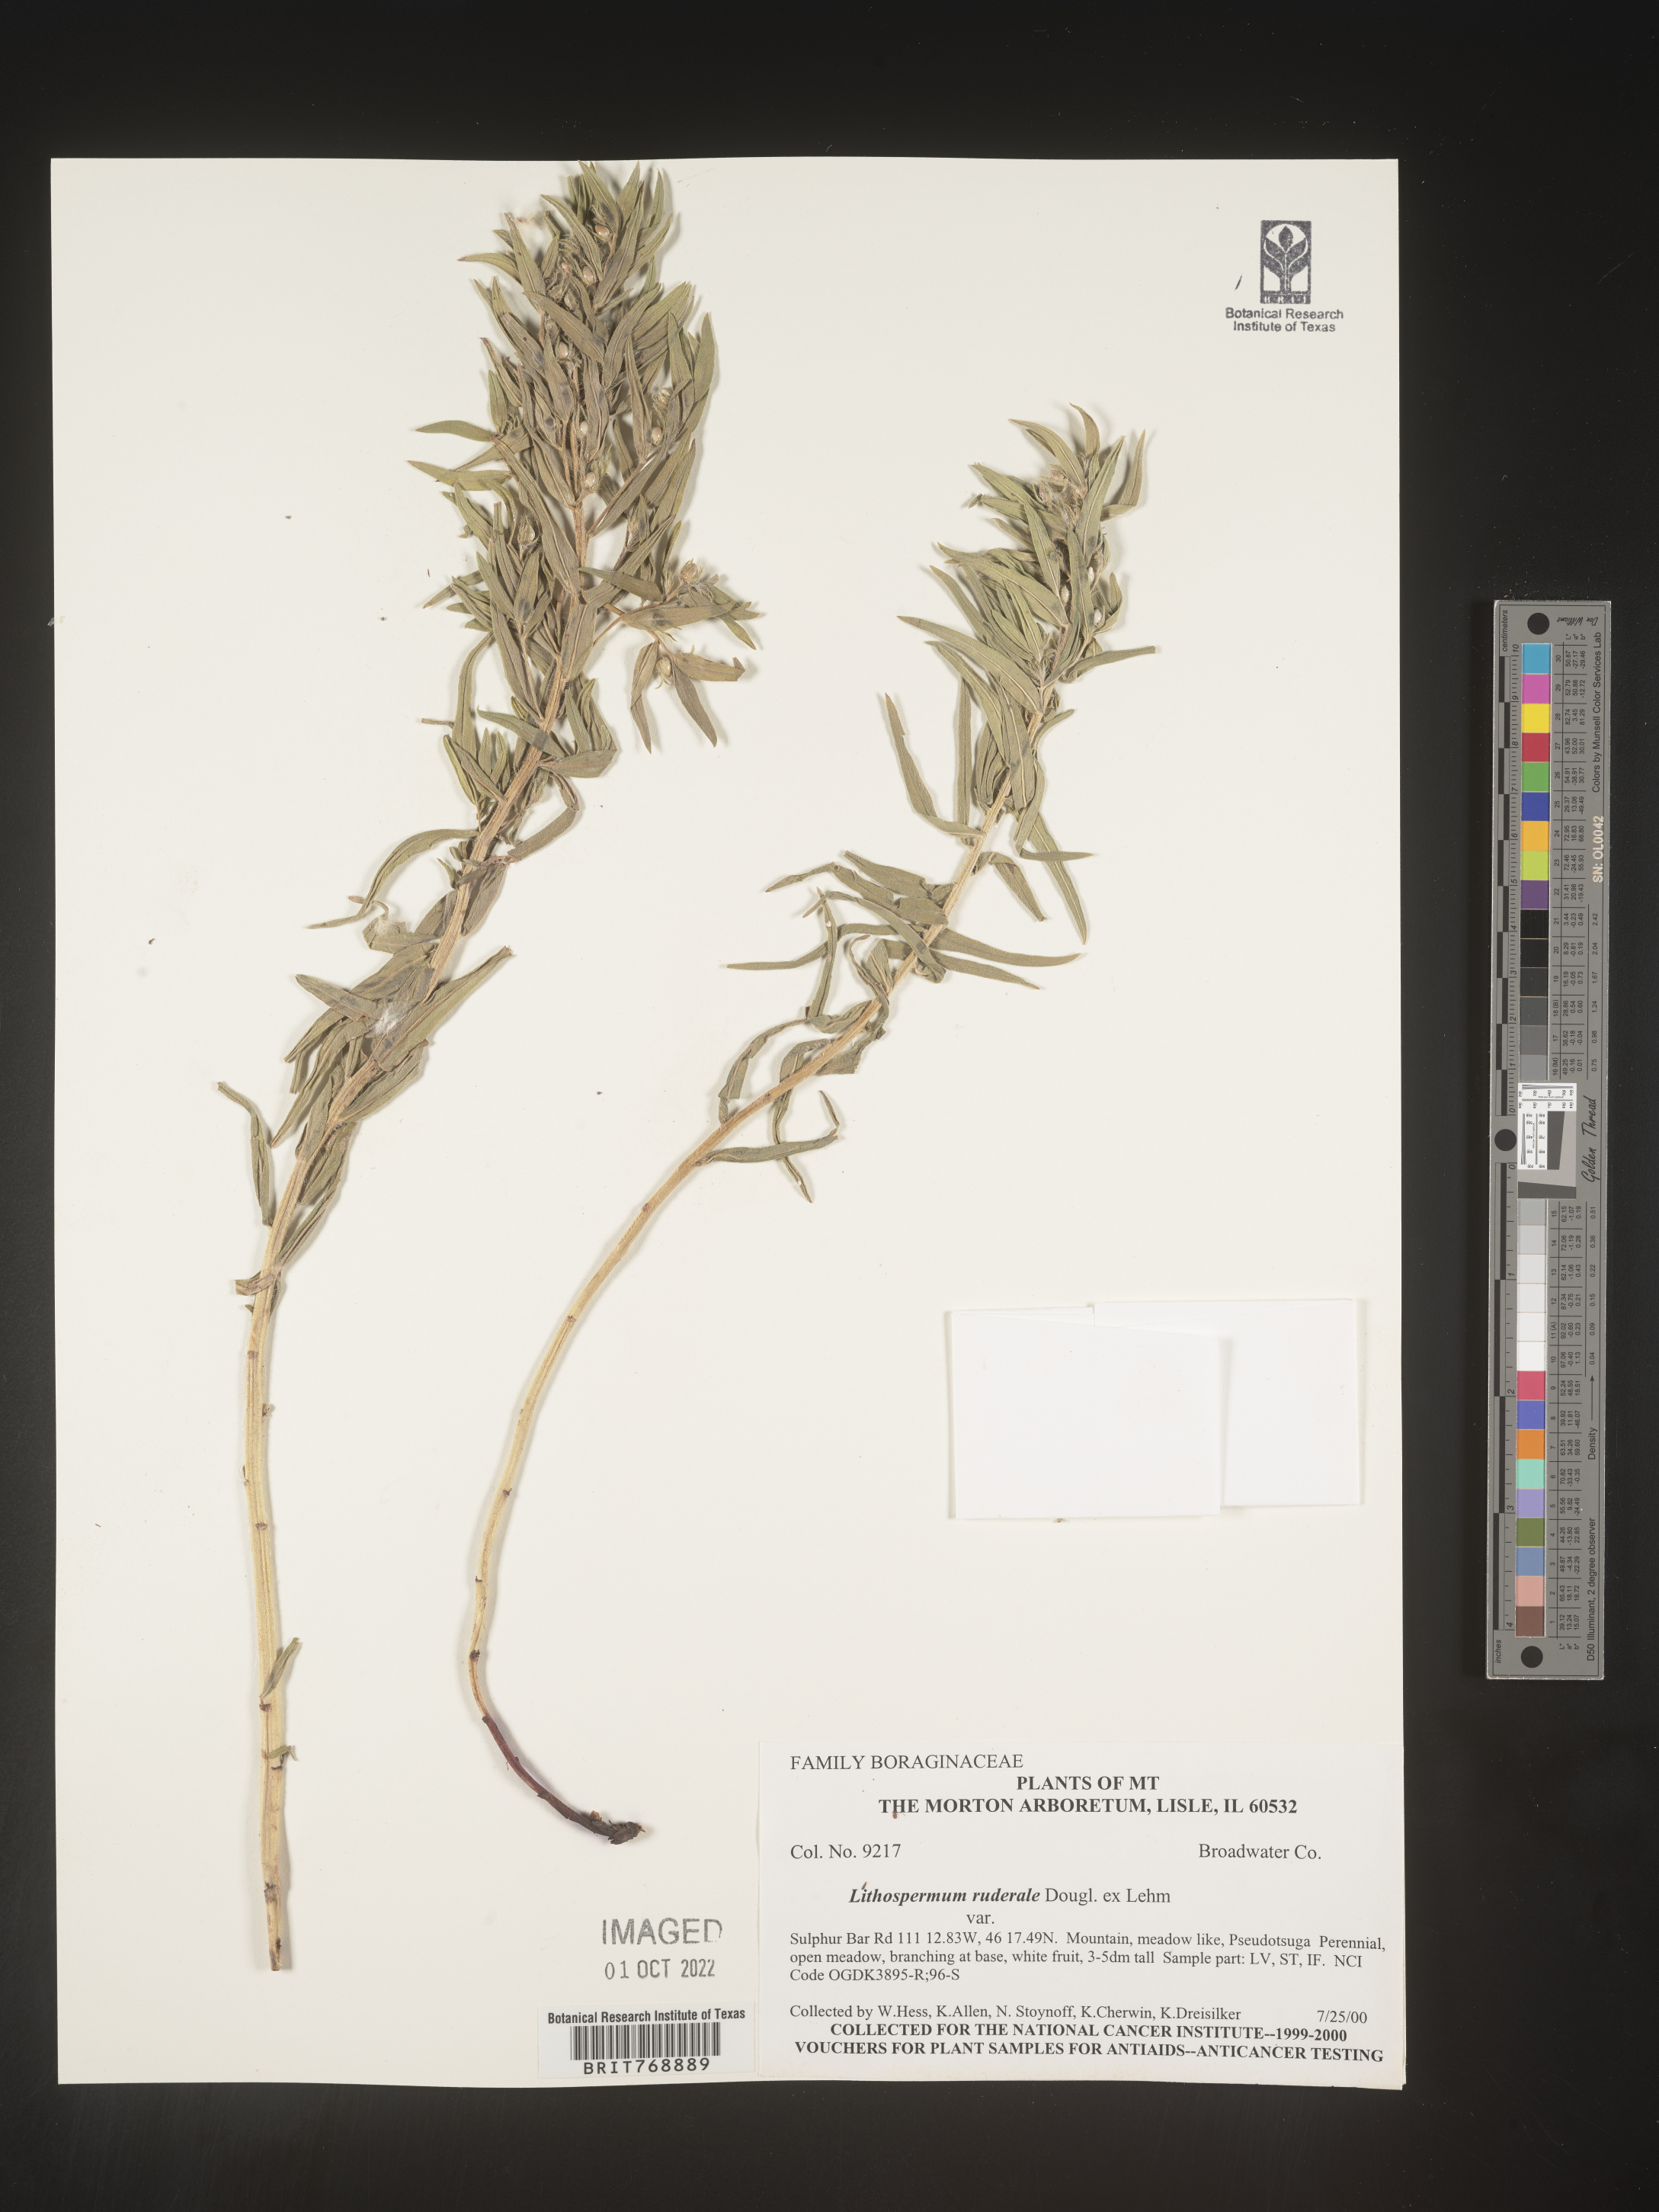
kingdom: Plantae
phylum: Tracheophyta
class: Magnoliopsida
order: Boraginales
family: Boraginaceae
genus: Lithospermum
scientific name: Lithospermum
